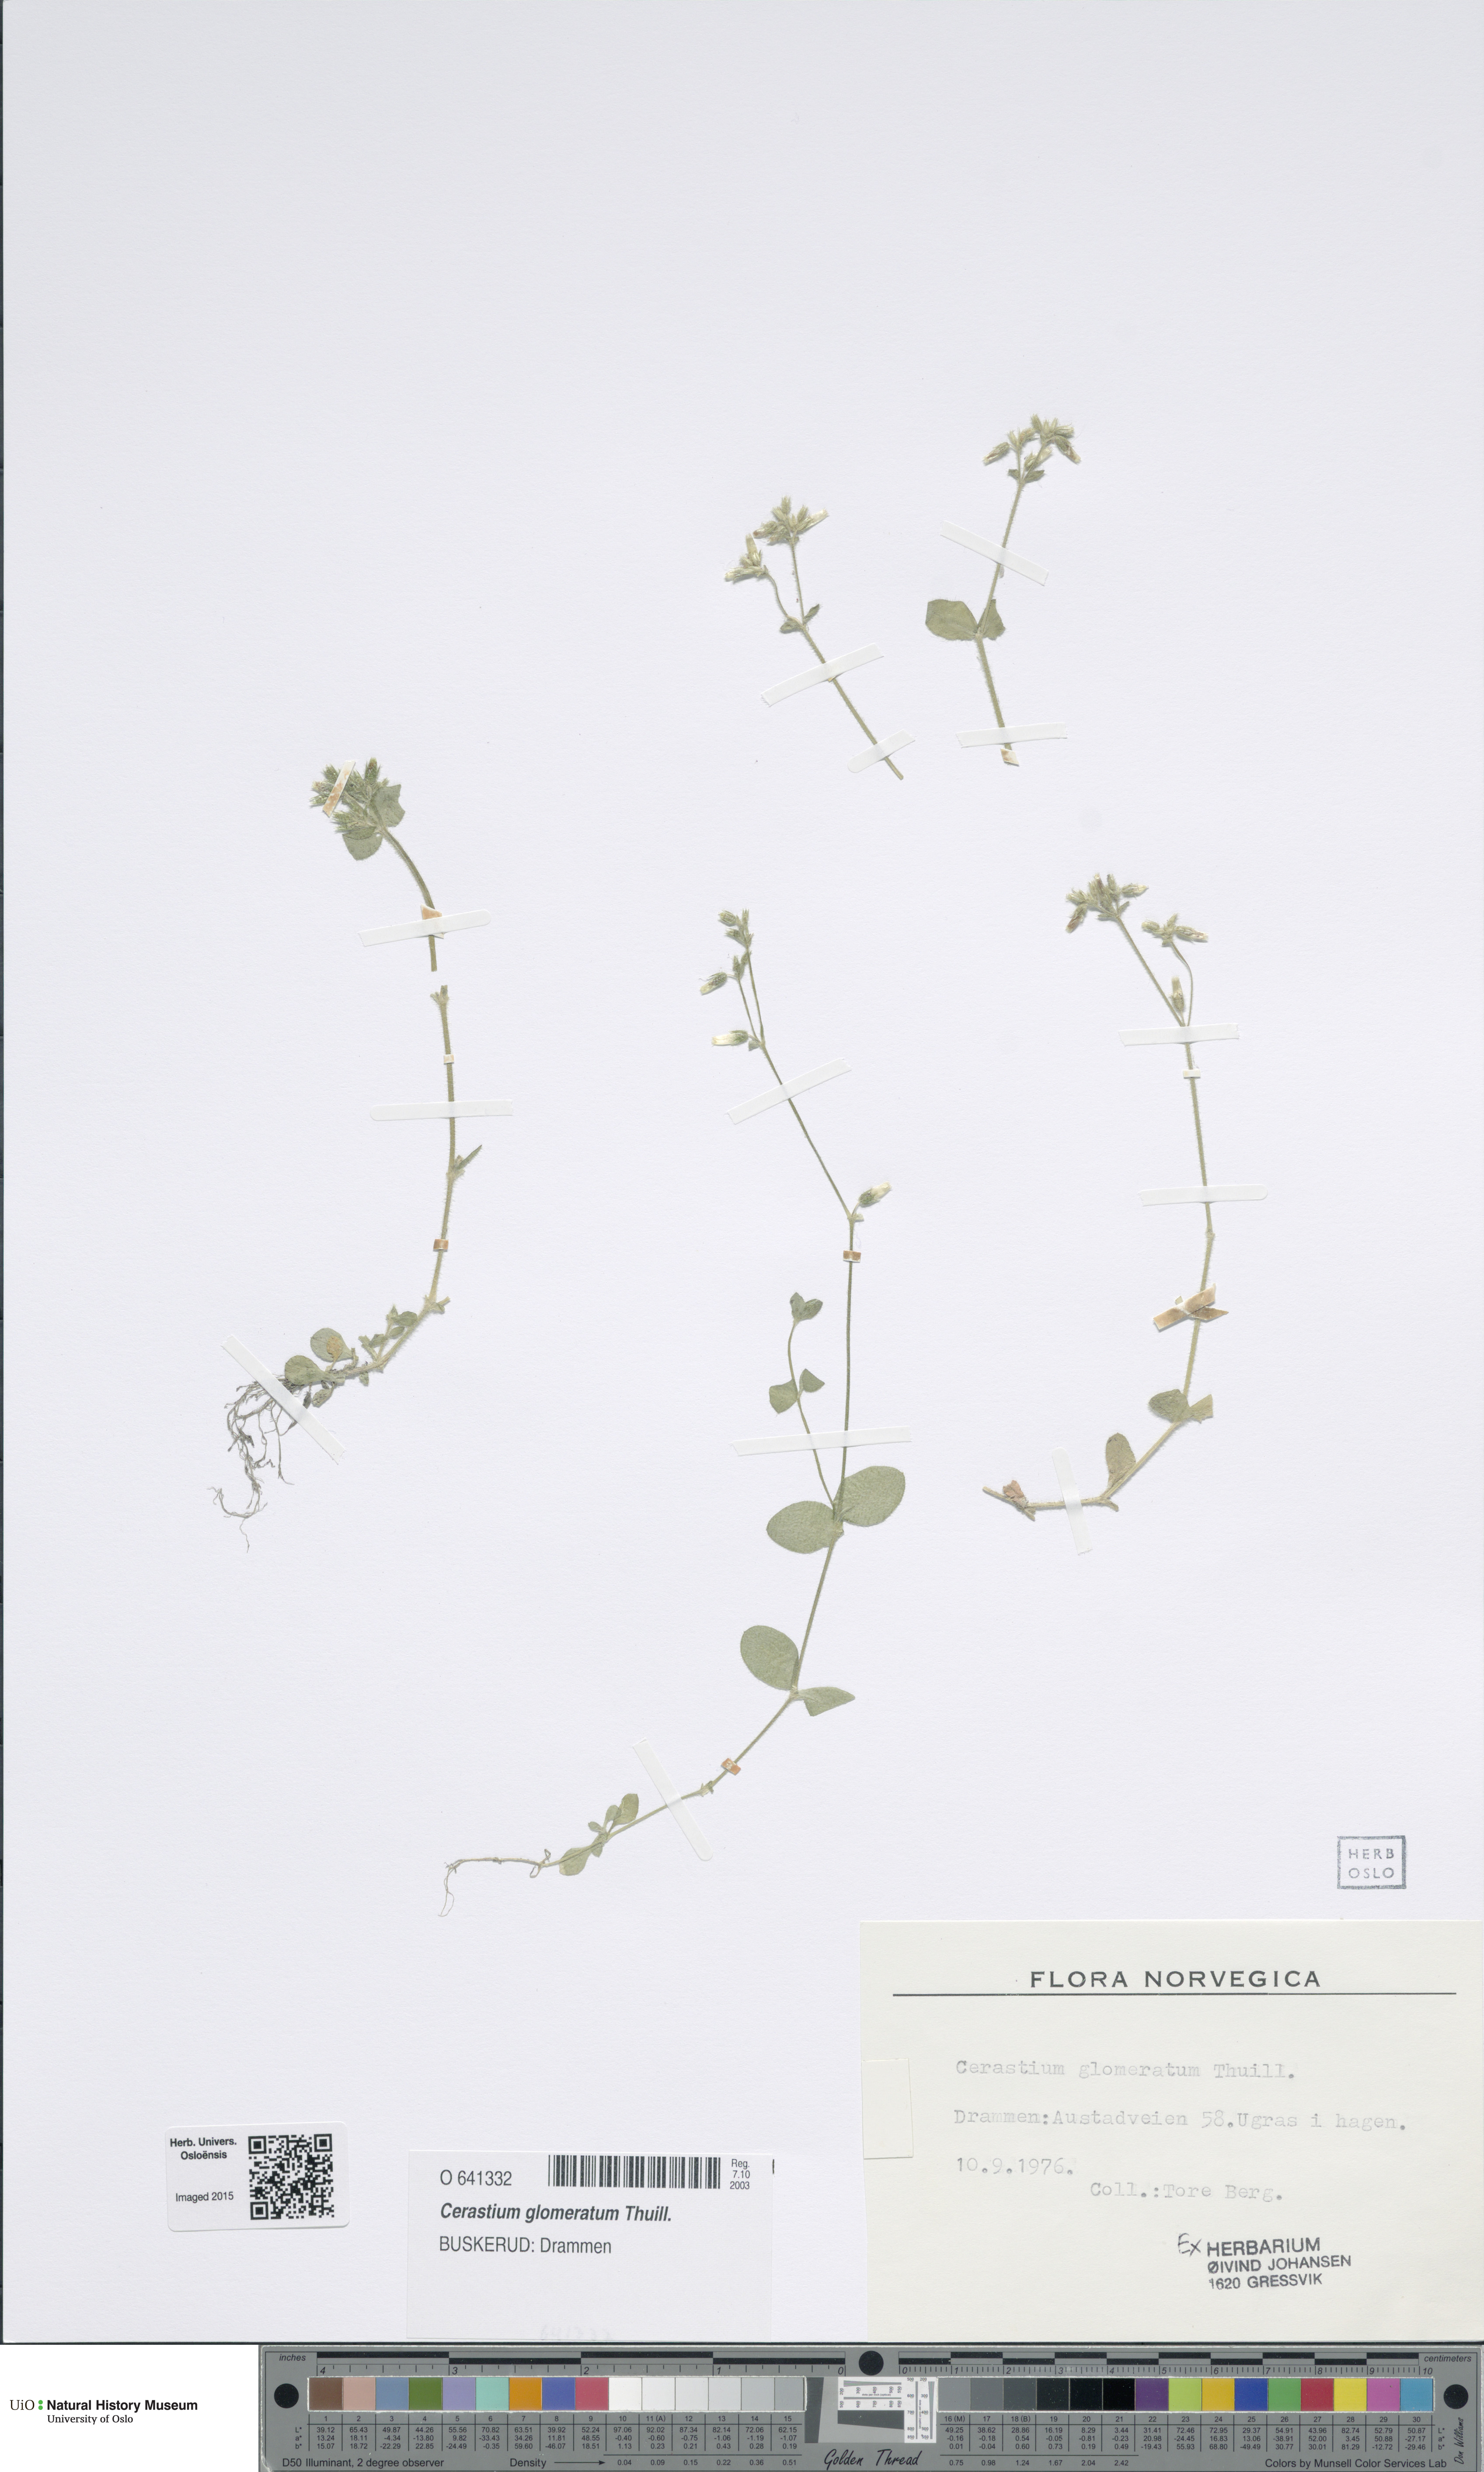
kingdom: Plantae
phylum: Tracheophyta
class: Magnoliopsida
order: Caryophyllales
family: Caryophyllaceae
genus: Cerastium
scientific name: Cerastium glomeratum
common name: Sticky chickweed
